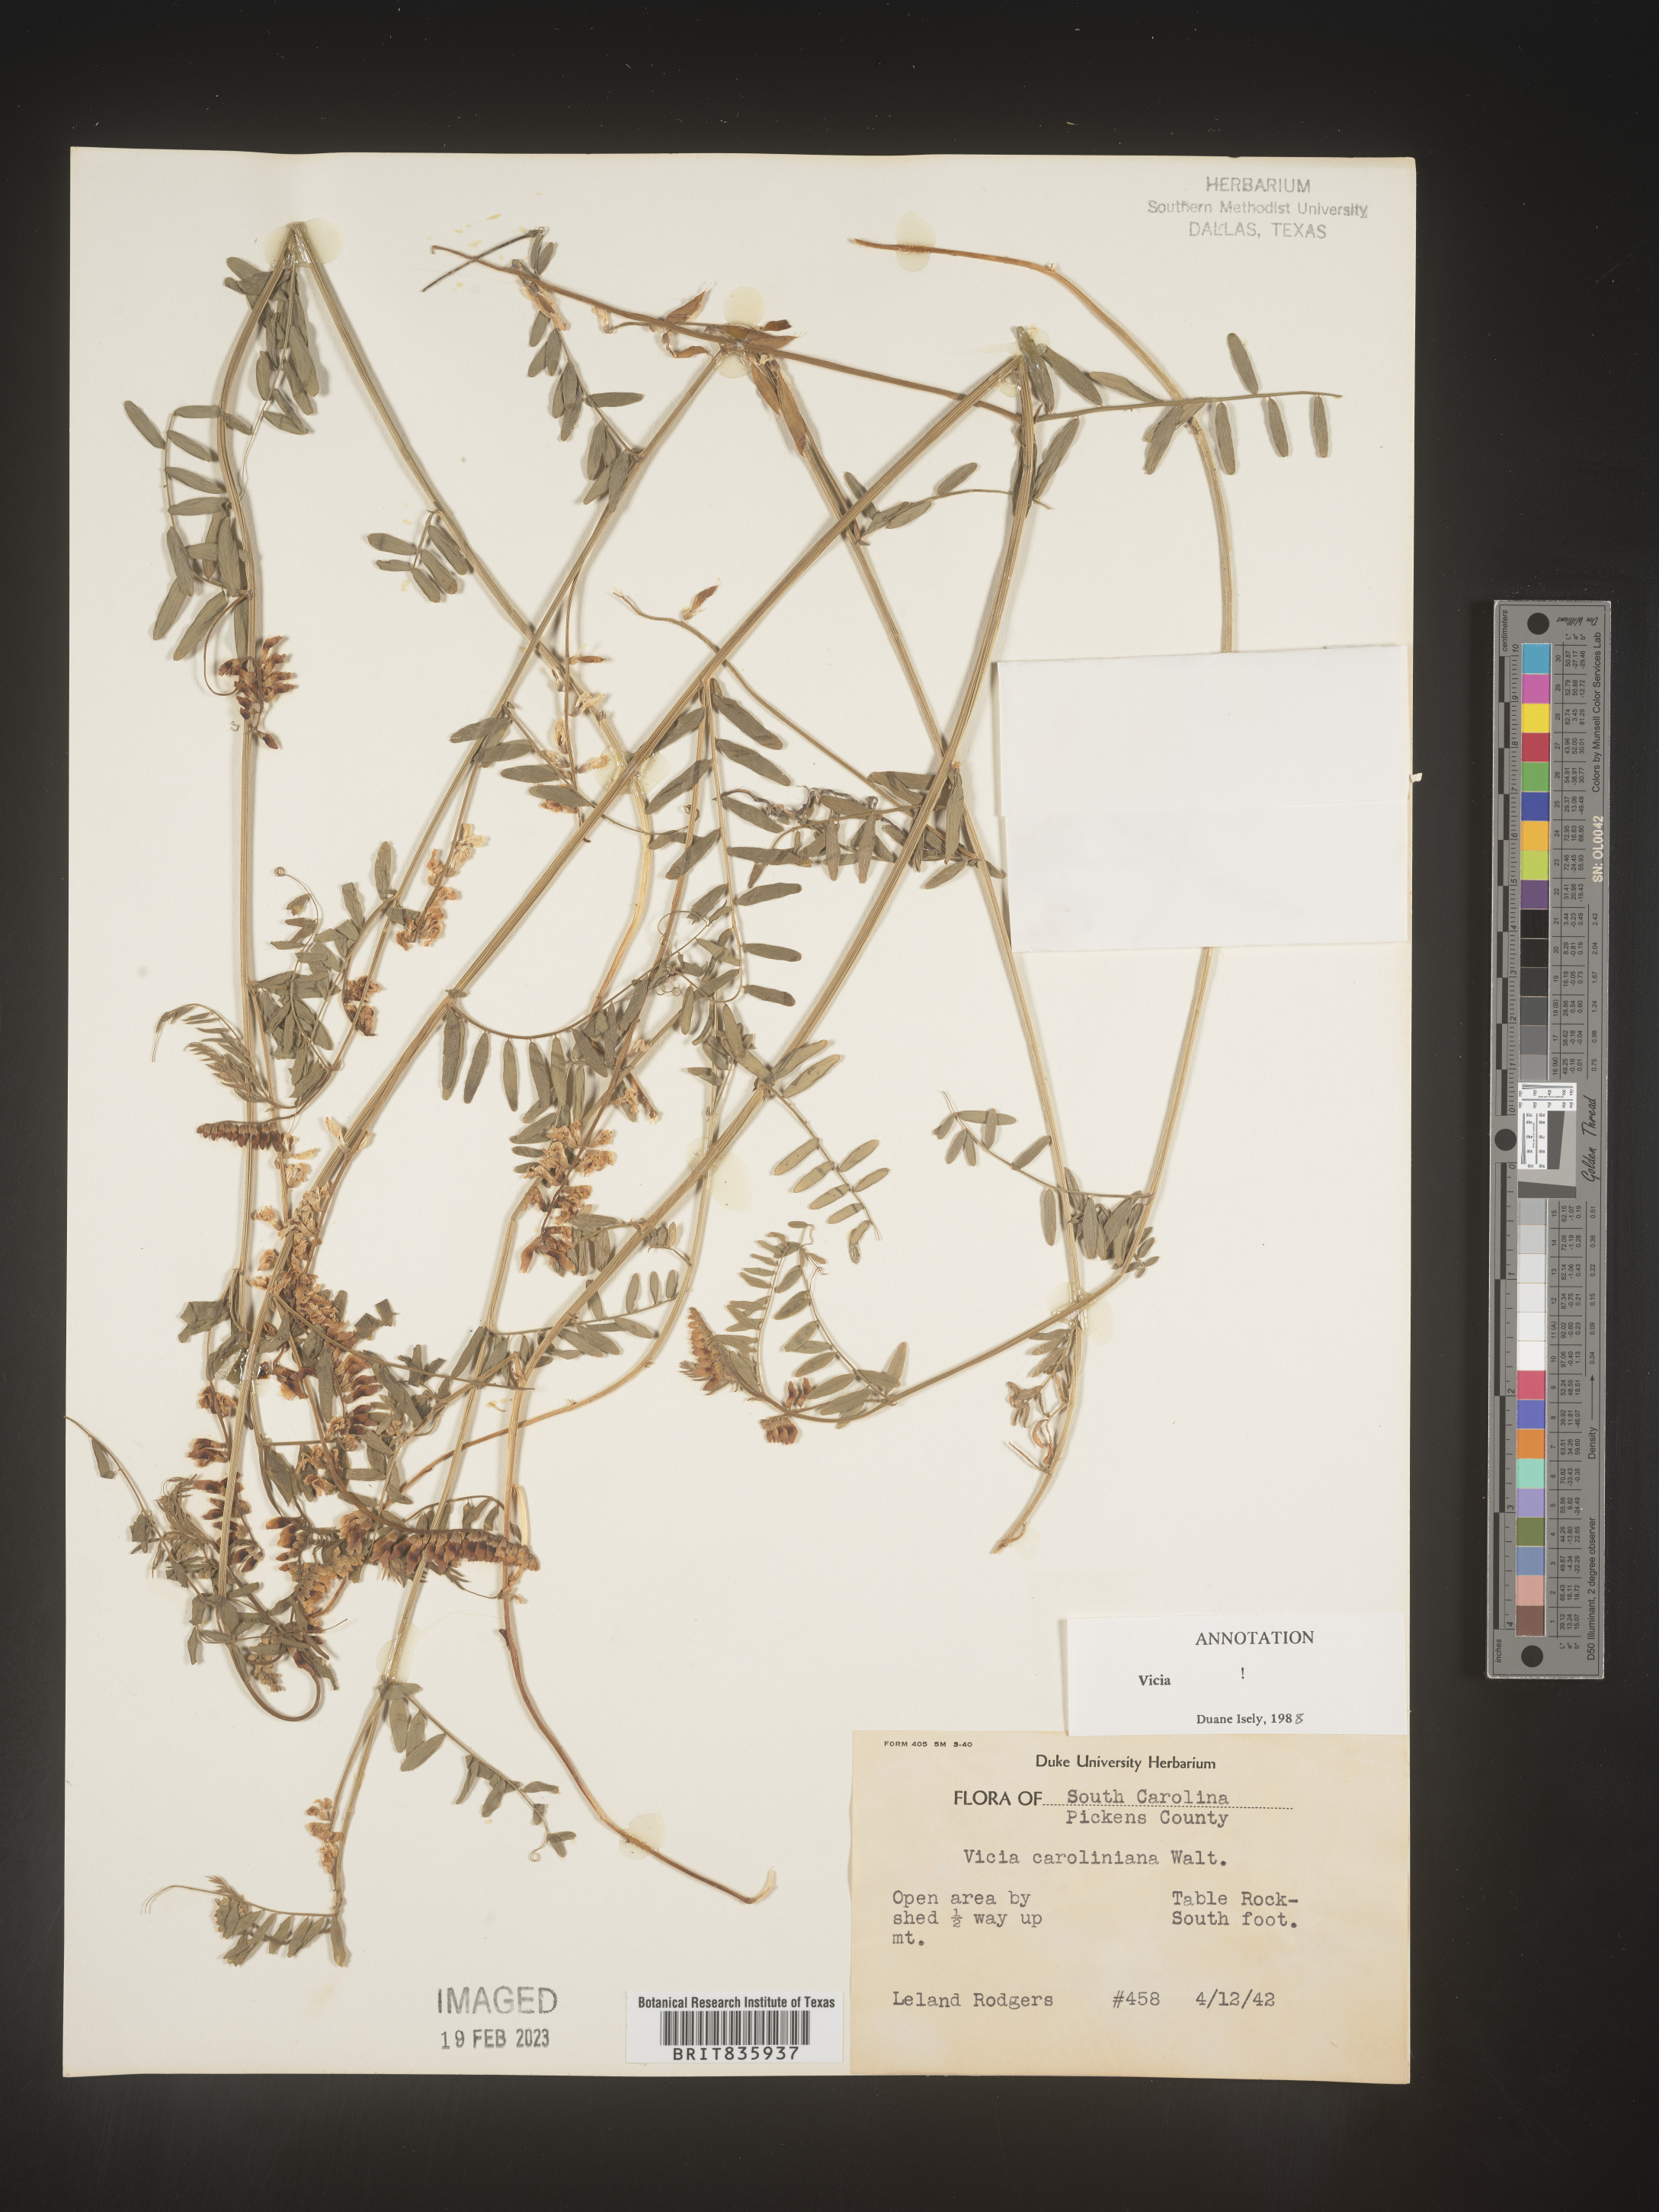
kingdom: Plantae
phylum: Tracheophyta
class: Magnoliopsida
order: Fabales
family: Fabaceae
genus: Vicia
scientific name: Vicia caroliniana
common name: Carolina vetch
